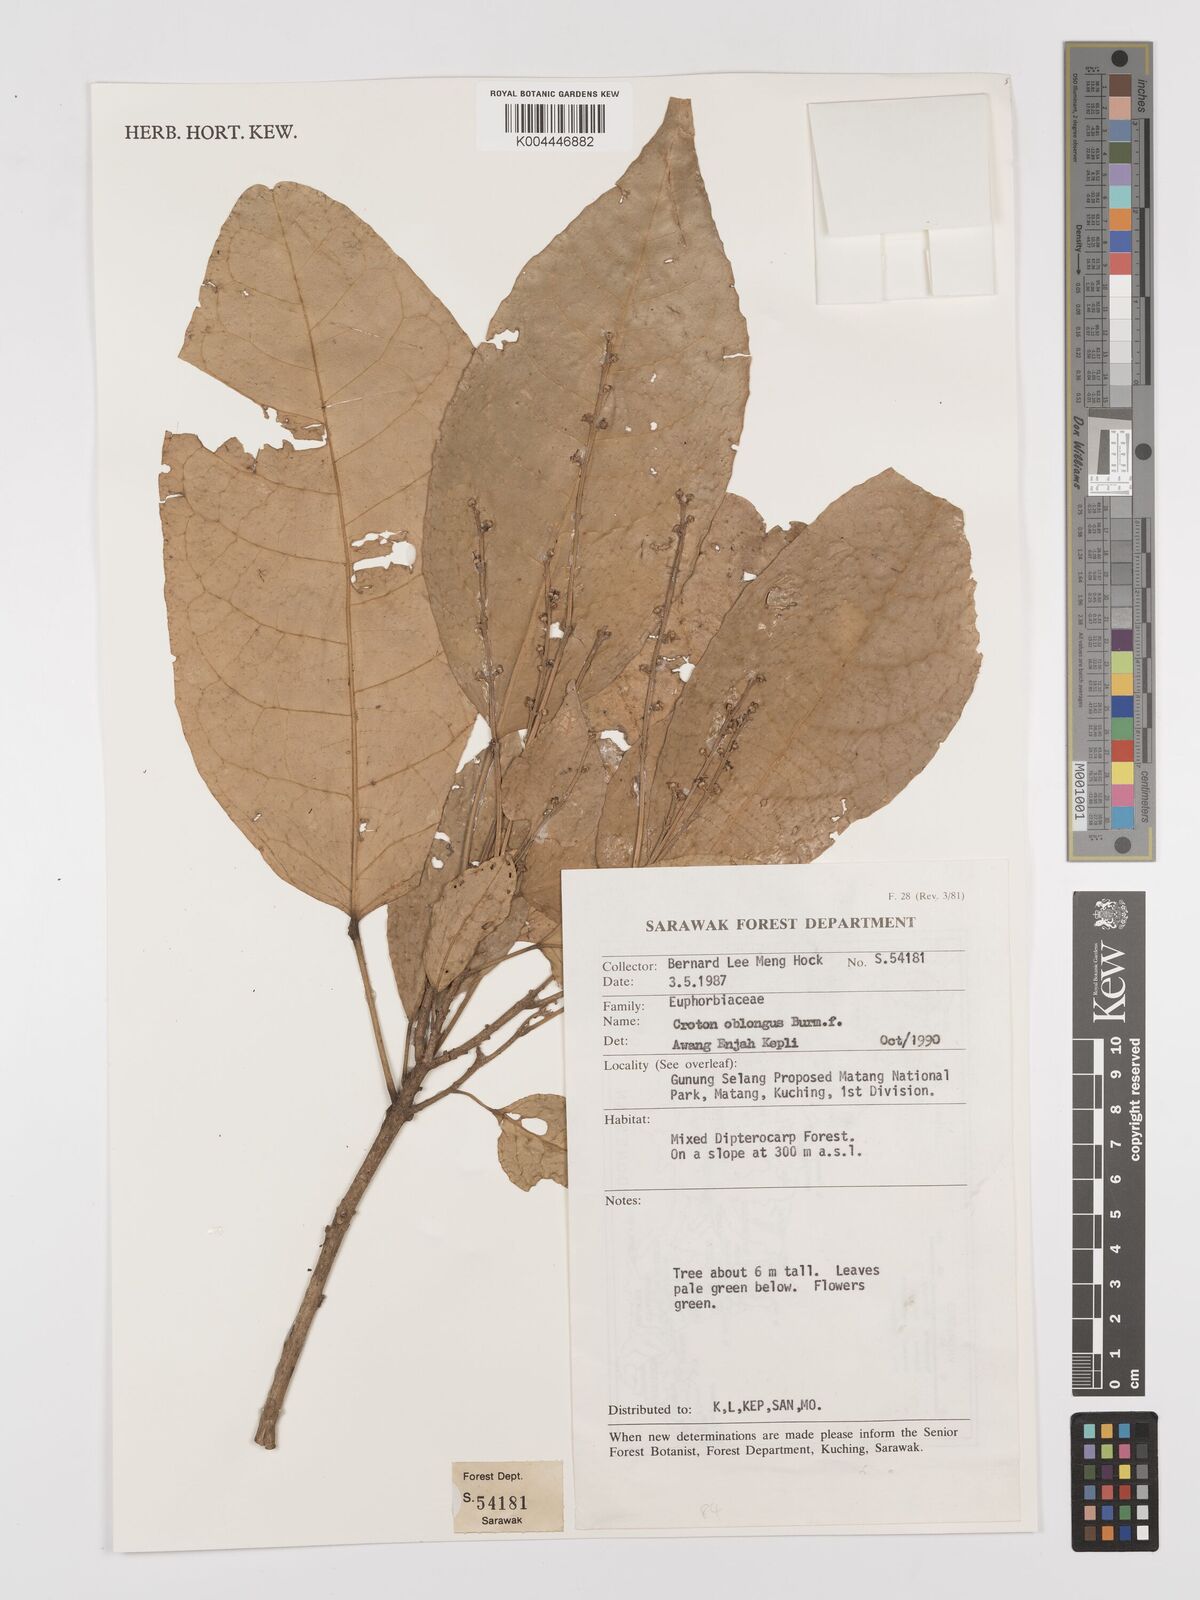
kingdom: Plantae
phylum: Tracheophyta
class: Magnoliopsida
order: Malpighiales
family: Euphorbiaceae
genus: Croton
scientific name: Croton oblongus
